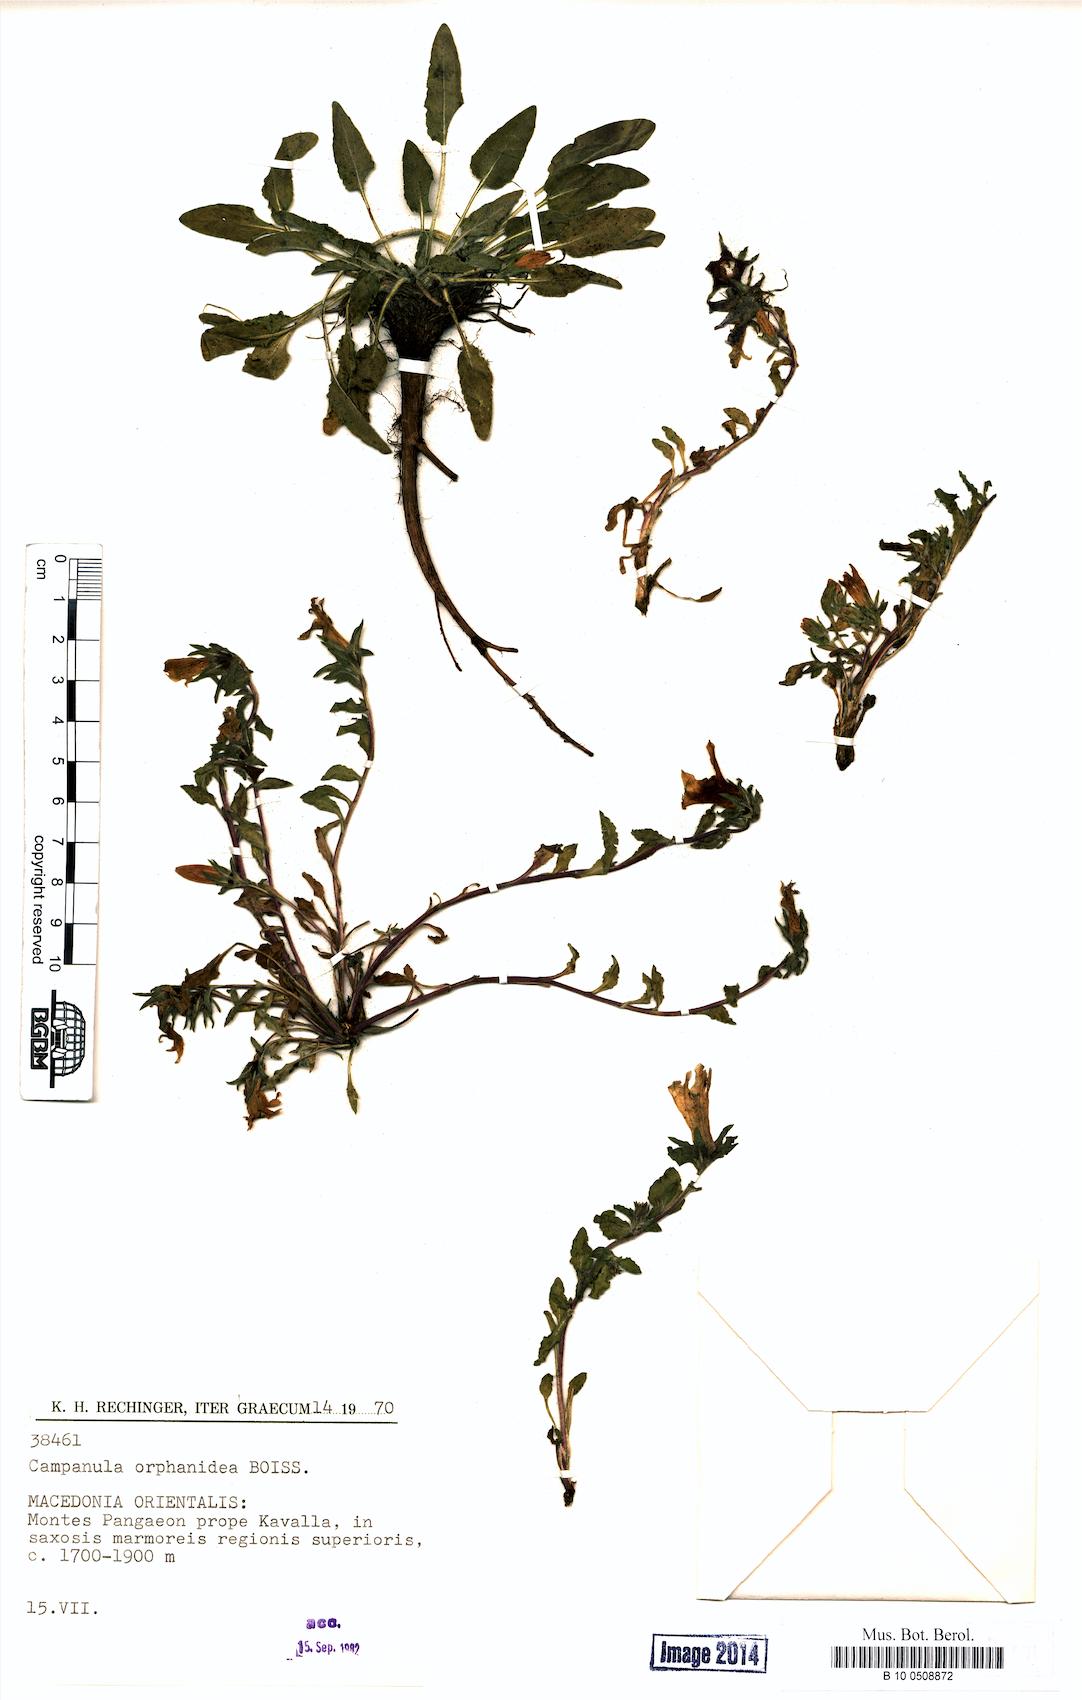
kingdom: Plantae
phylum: Tracheophyta
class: Magnoliopsida
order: Asterales
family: Campanulaceae
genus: Campanula
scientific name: Campanula orphanidea
